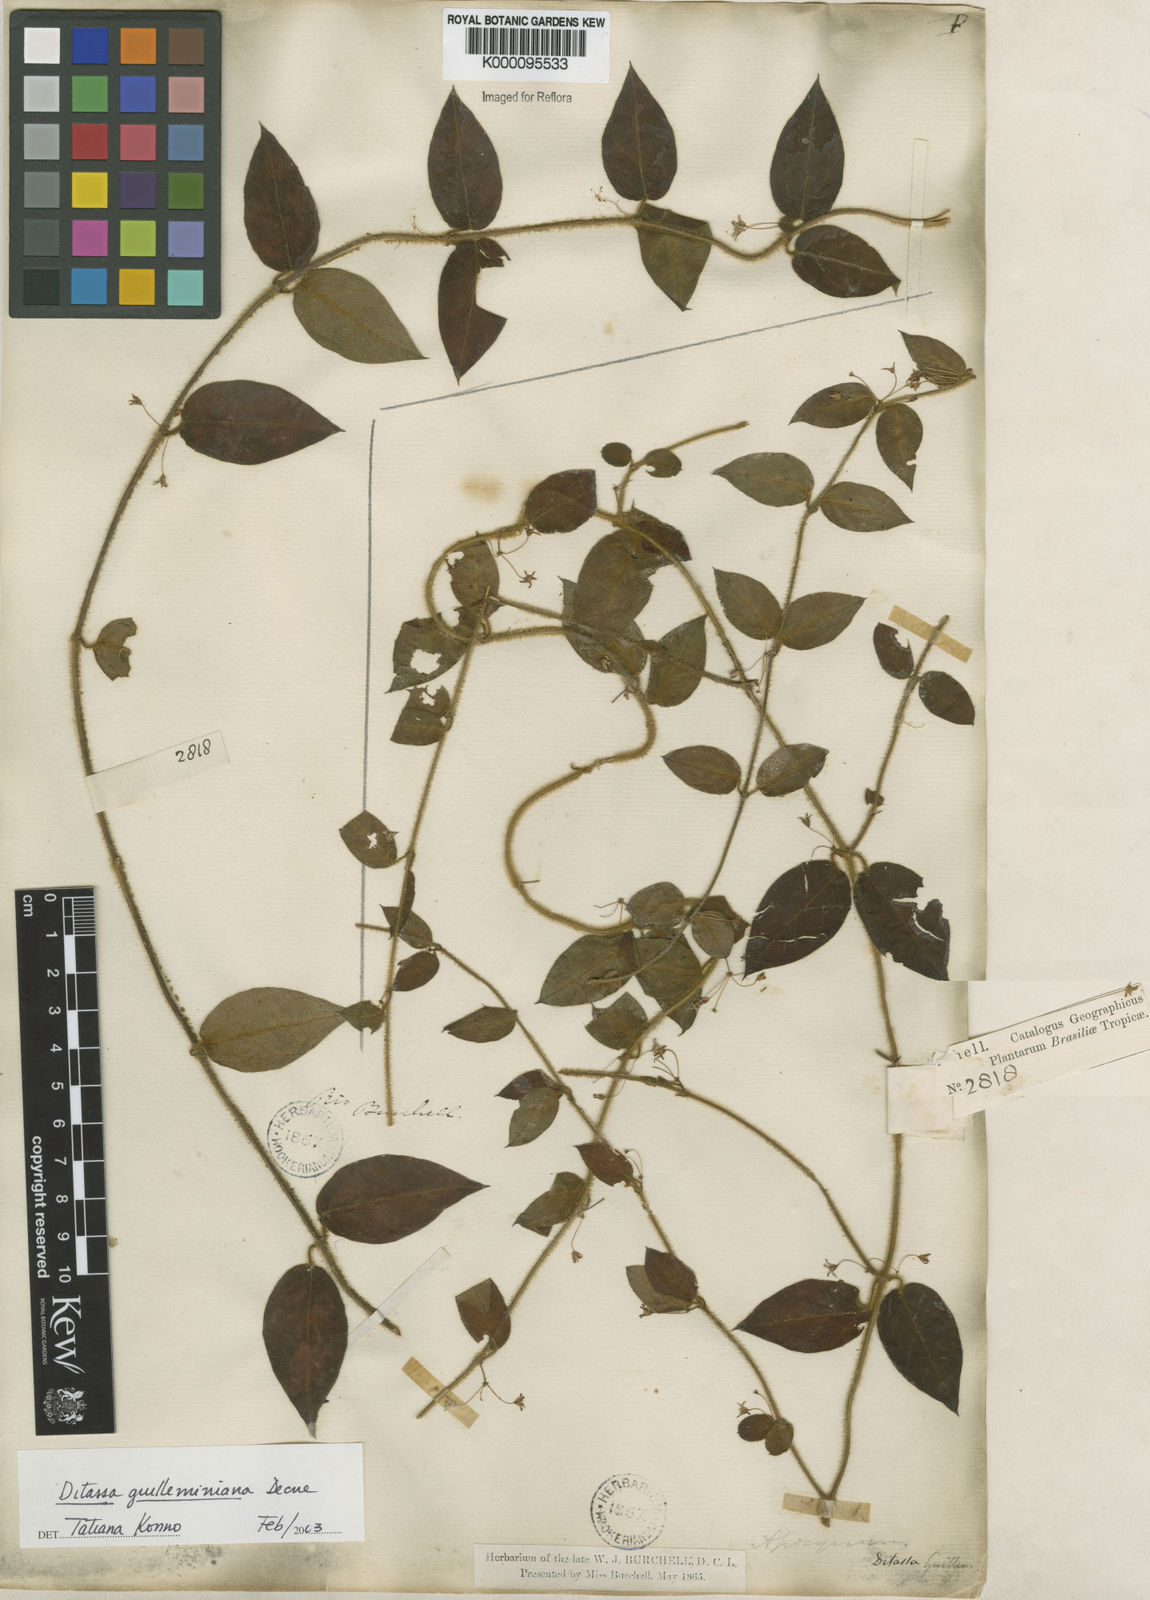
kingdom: Plantae
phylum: Tracheophyta
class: Magnoliopsida
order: Gentianales
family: Apocynaceae
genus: Ditassa
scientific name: Ditassa hispida
